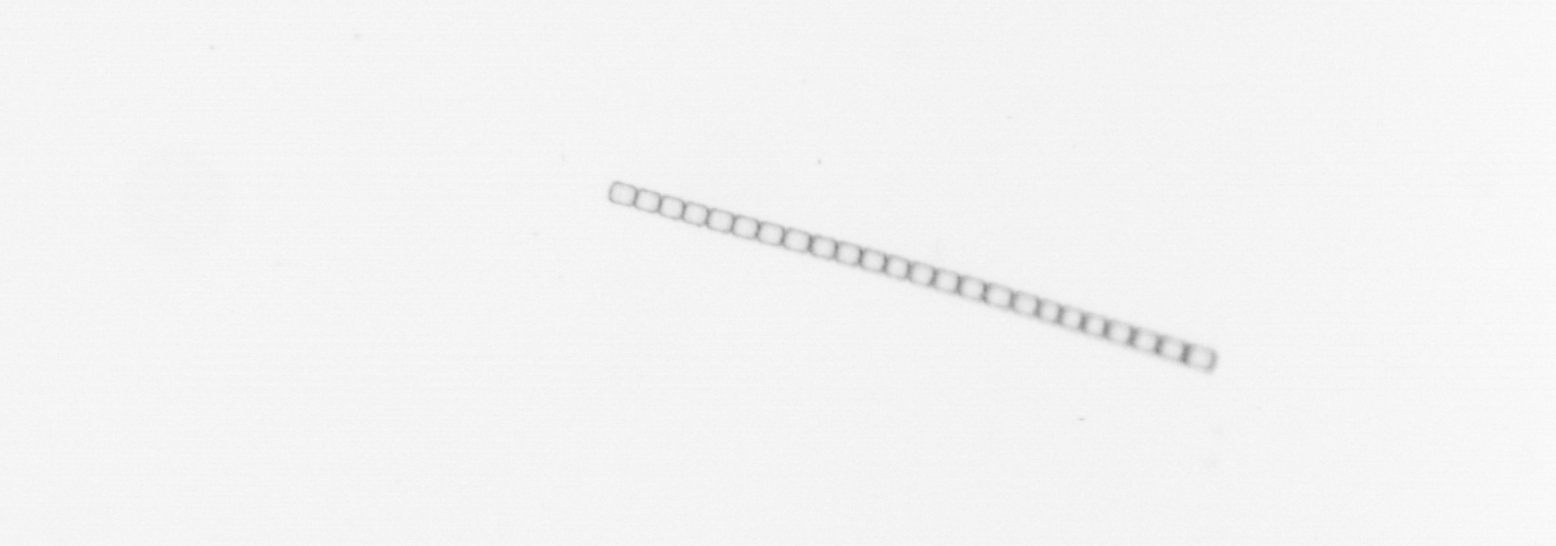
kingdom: Chromista
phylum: Ochrophyta
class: Bacillariophyceae
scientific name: Bacillariophyceae
